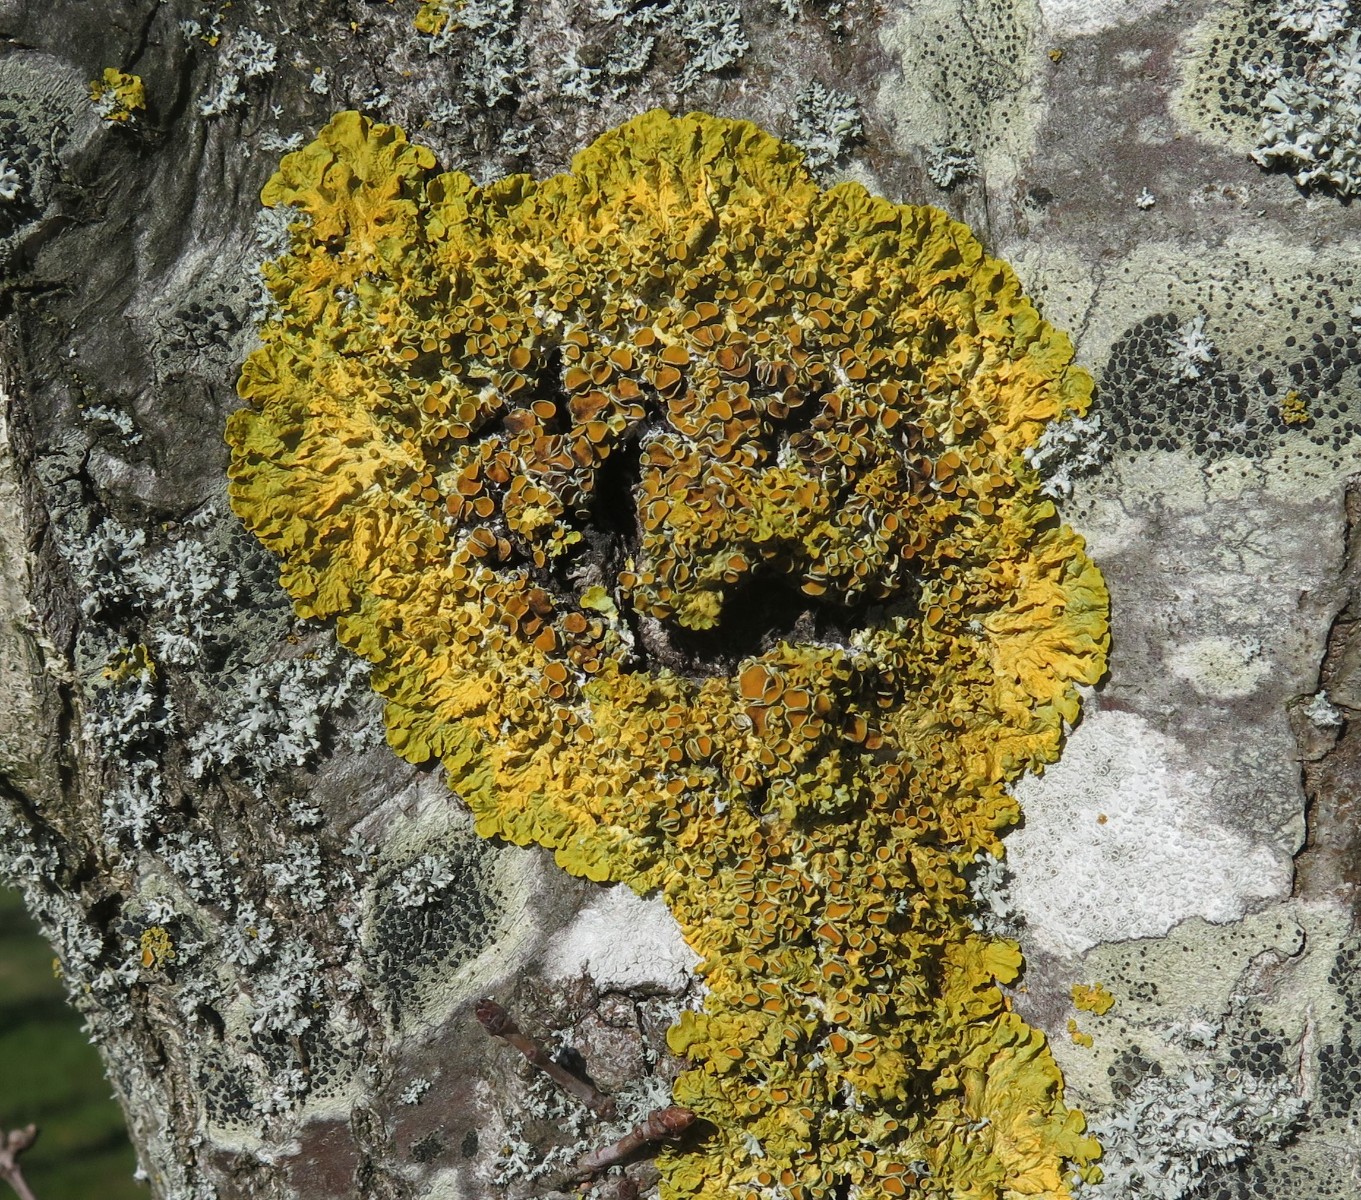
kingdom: Fungi
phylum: Ascomycota
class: Lecanoromycetes
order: Teloschistales
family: Teloschistaceae
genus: Xanthoria
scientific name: Xanthoria parietina
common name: almindelig væggelav
